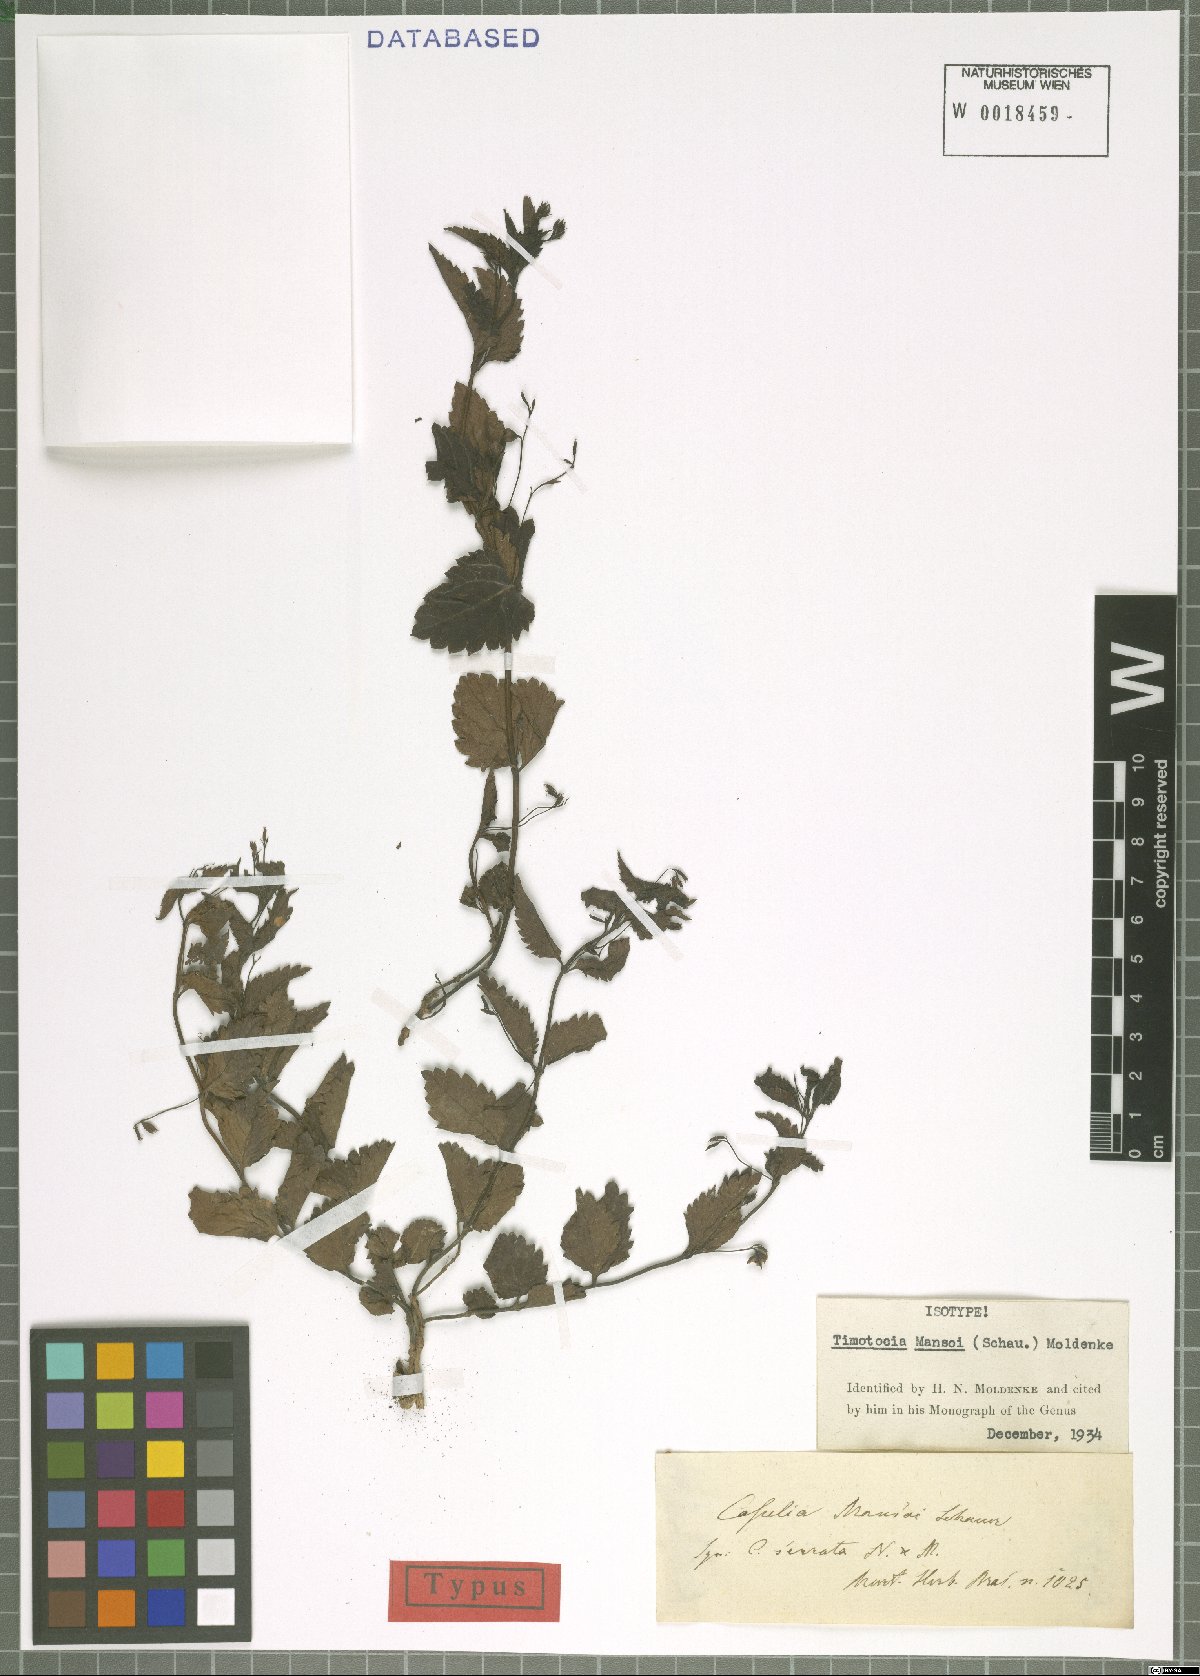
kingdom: Plantae
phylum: Tracheophyta
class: Magnoliopsida
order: Lamiales
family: Verbenaceae
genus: Casselia
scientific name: Casselia chamaedryfolia
